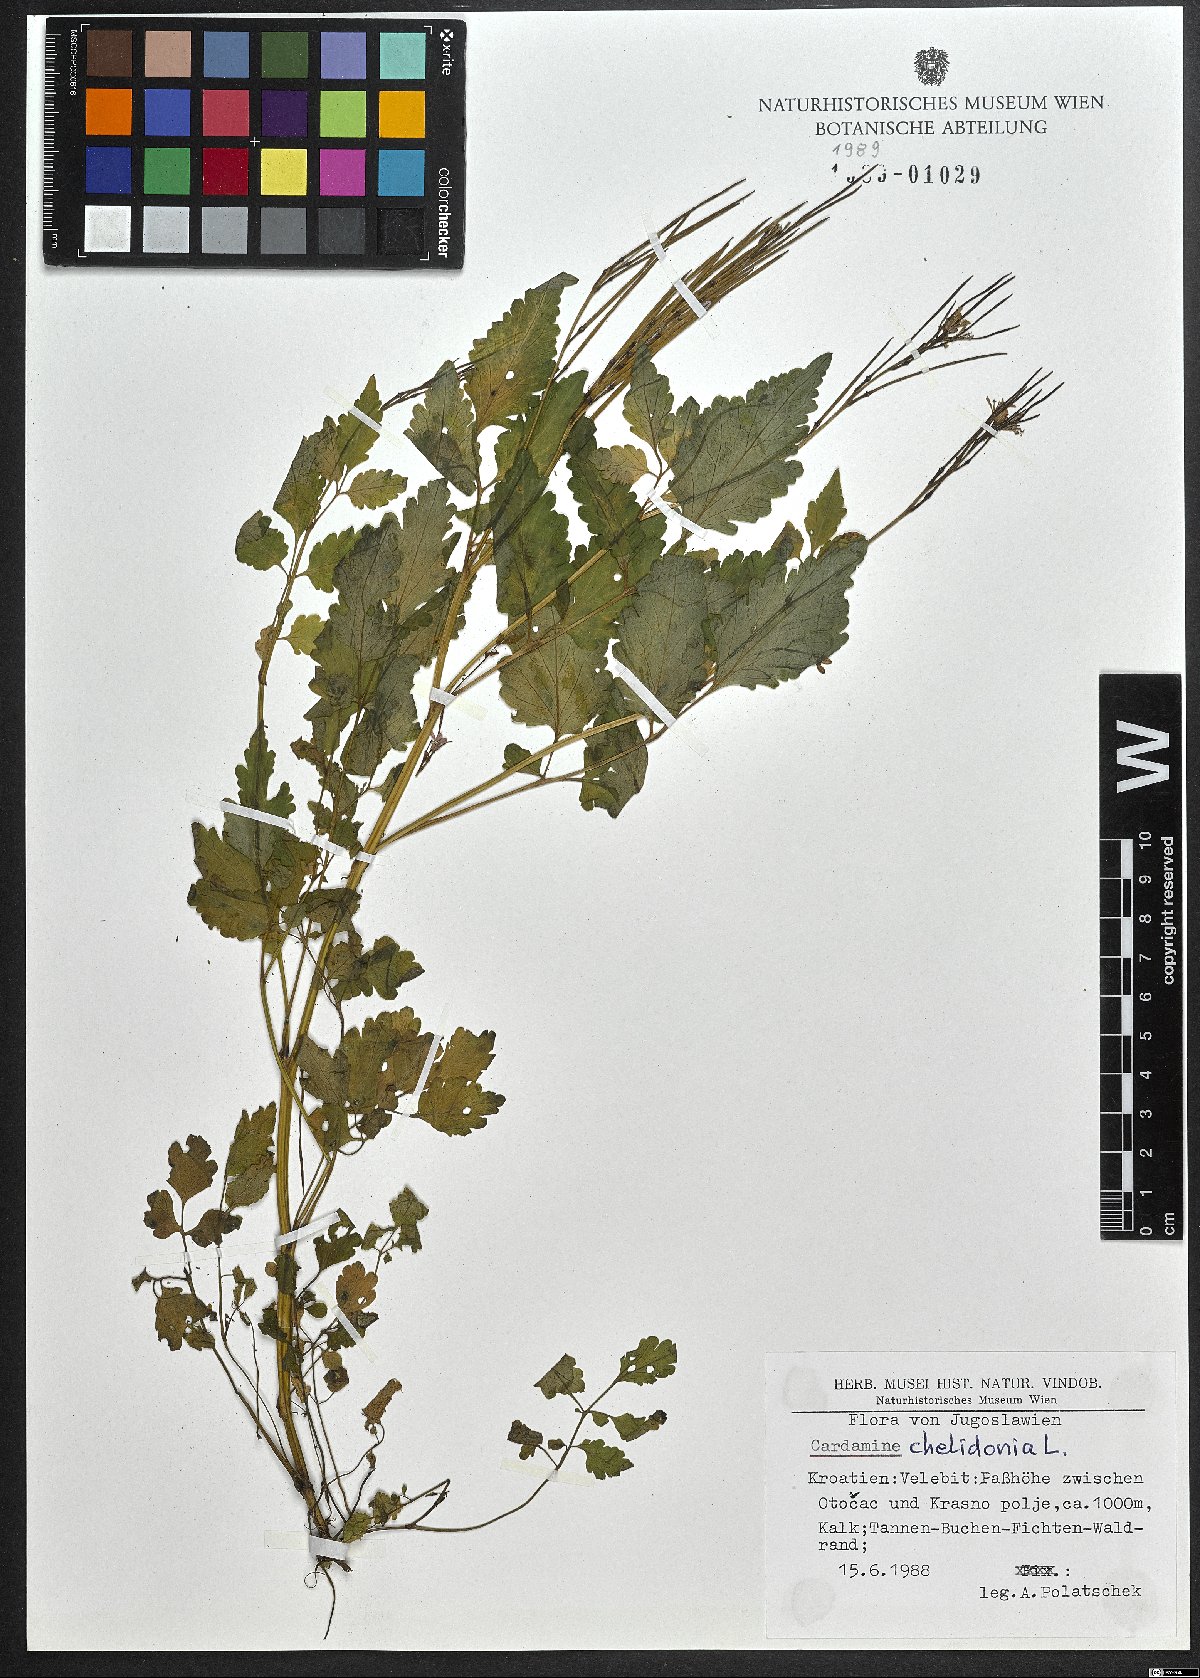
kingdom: Plantae
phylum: Tracheophyta
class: Magnoliopsida
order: Brassicales
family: Brassicaceae
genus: Cardamine
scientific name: Cardamine chelidonia
